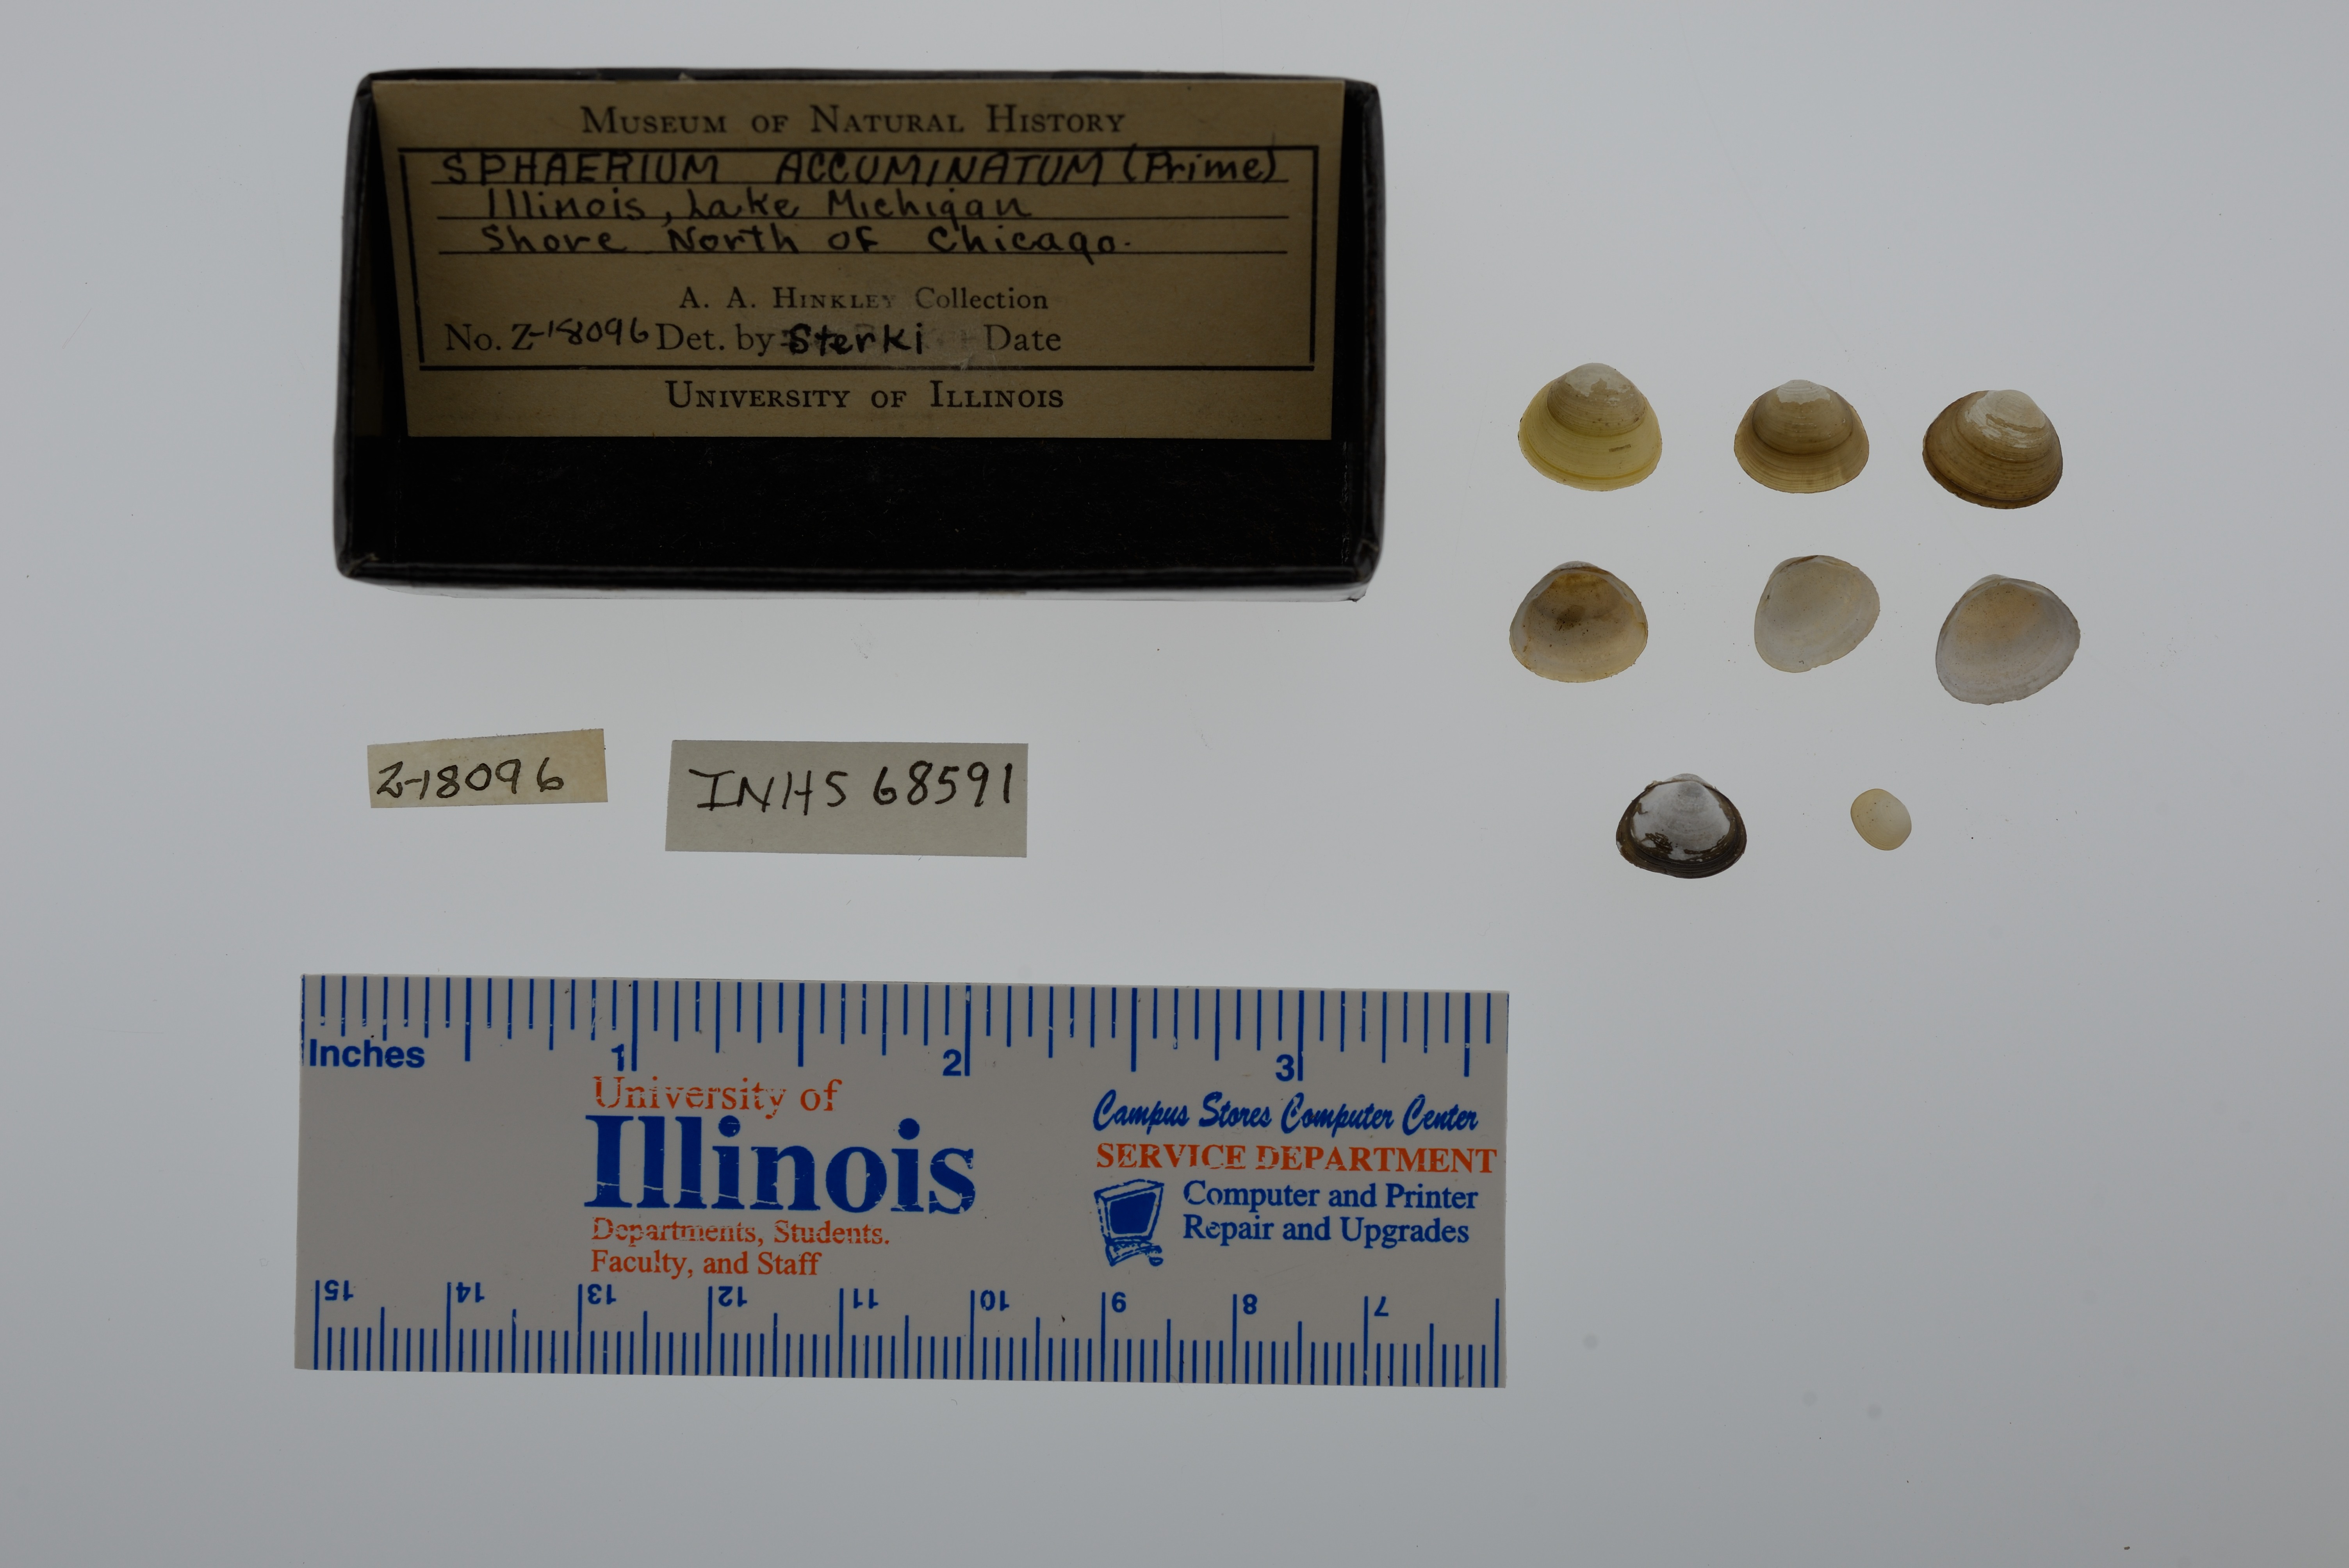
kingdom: Animalia
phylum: Mollusca
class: Bivalvia
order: Sphaeriida
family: Sphaeriidae
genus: Sphaerium
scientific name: Sphaerium striatinum
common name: Striated fingernailclam
